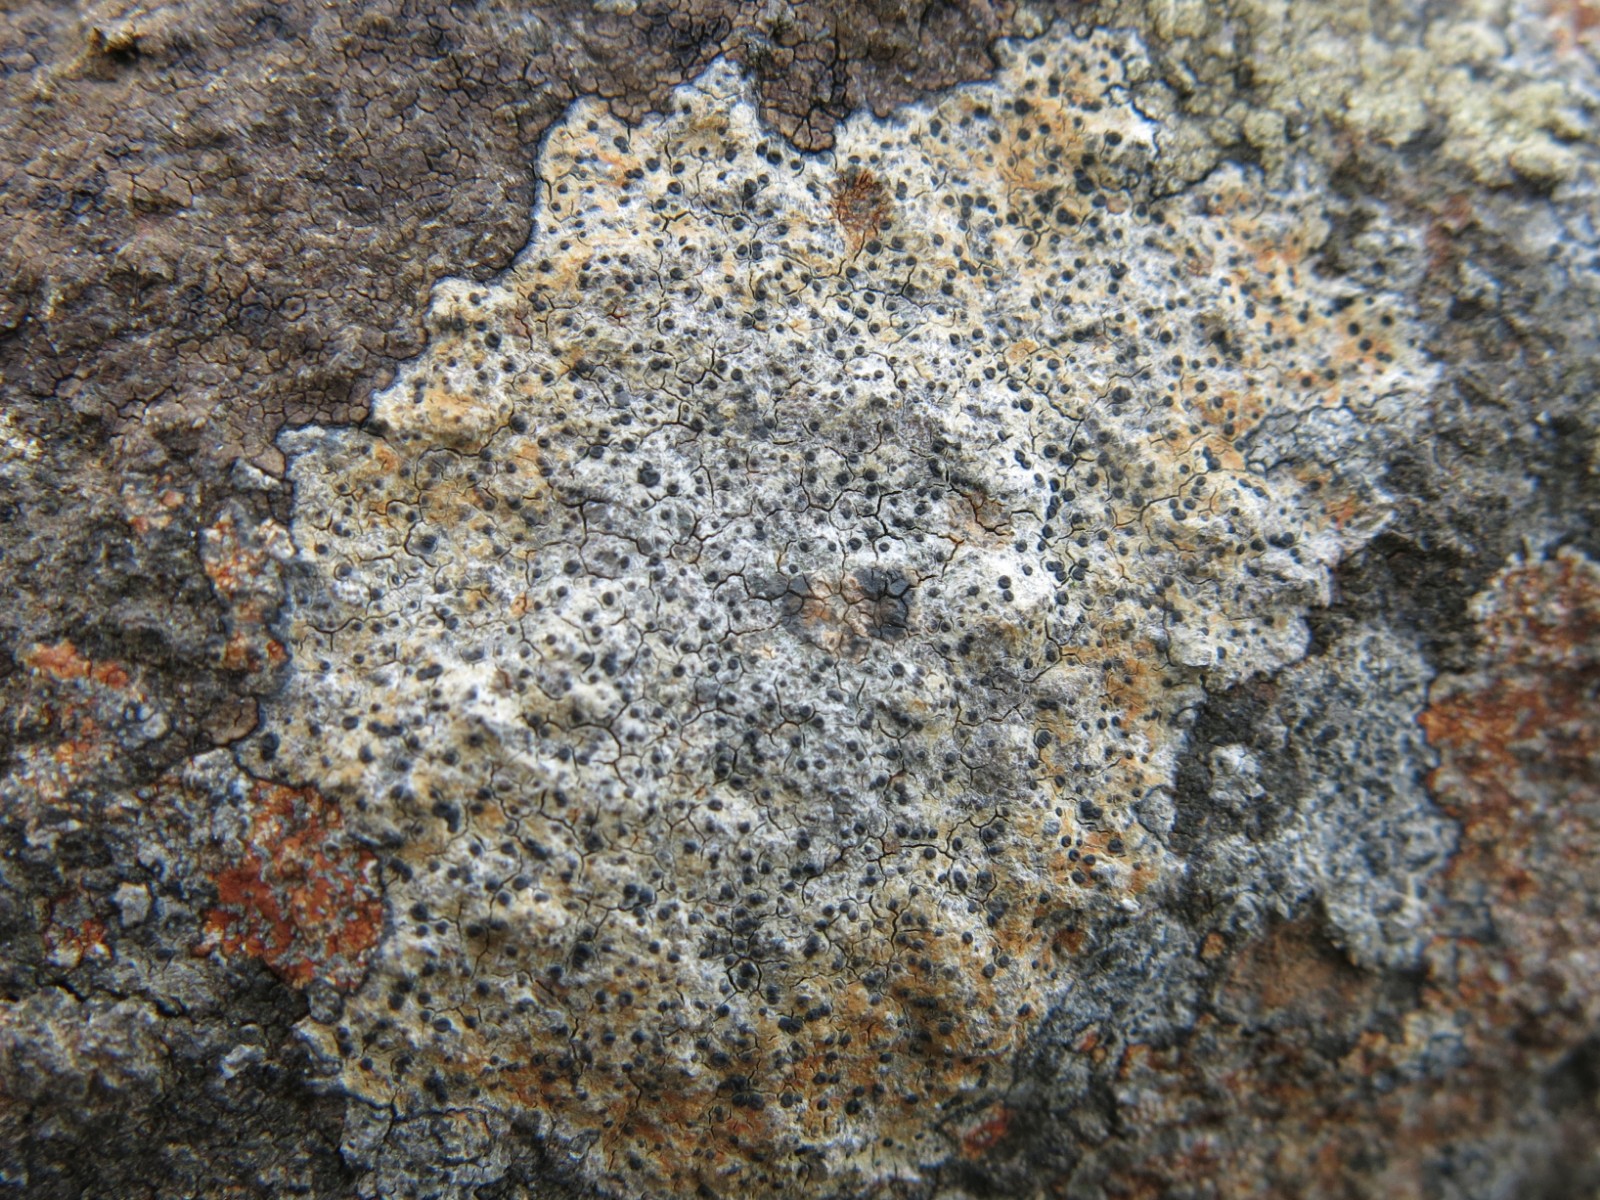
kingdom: Fungi
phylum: Ascomycota
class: Lecanoromycetes
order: Lecideales
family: Lecideaceae
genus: Clauzadea
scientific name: Clauzadea metzleri
